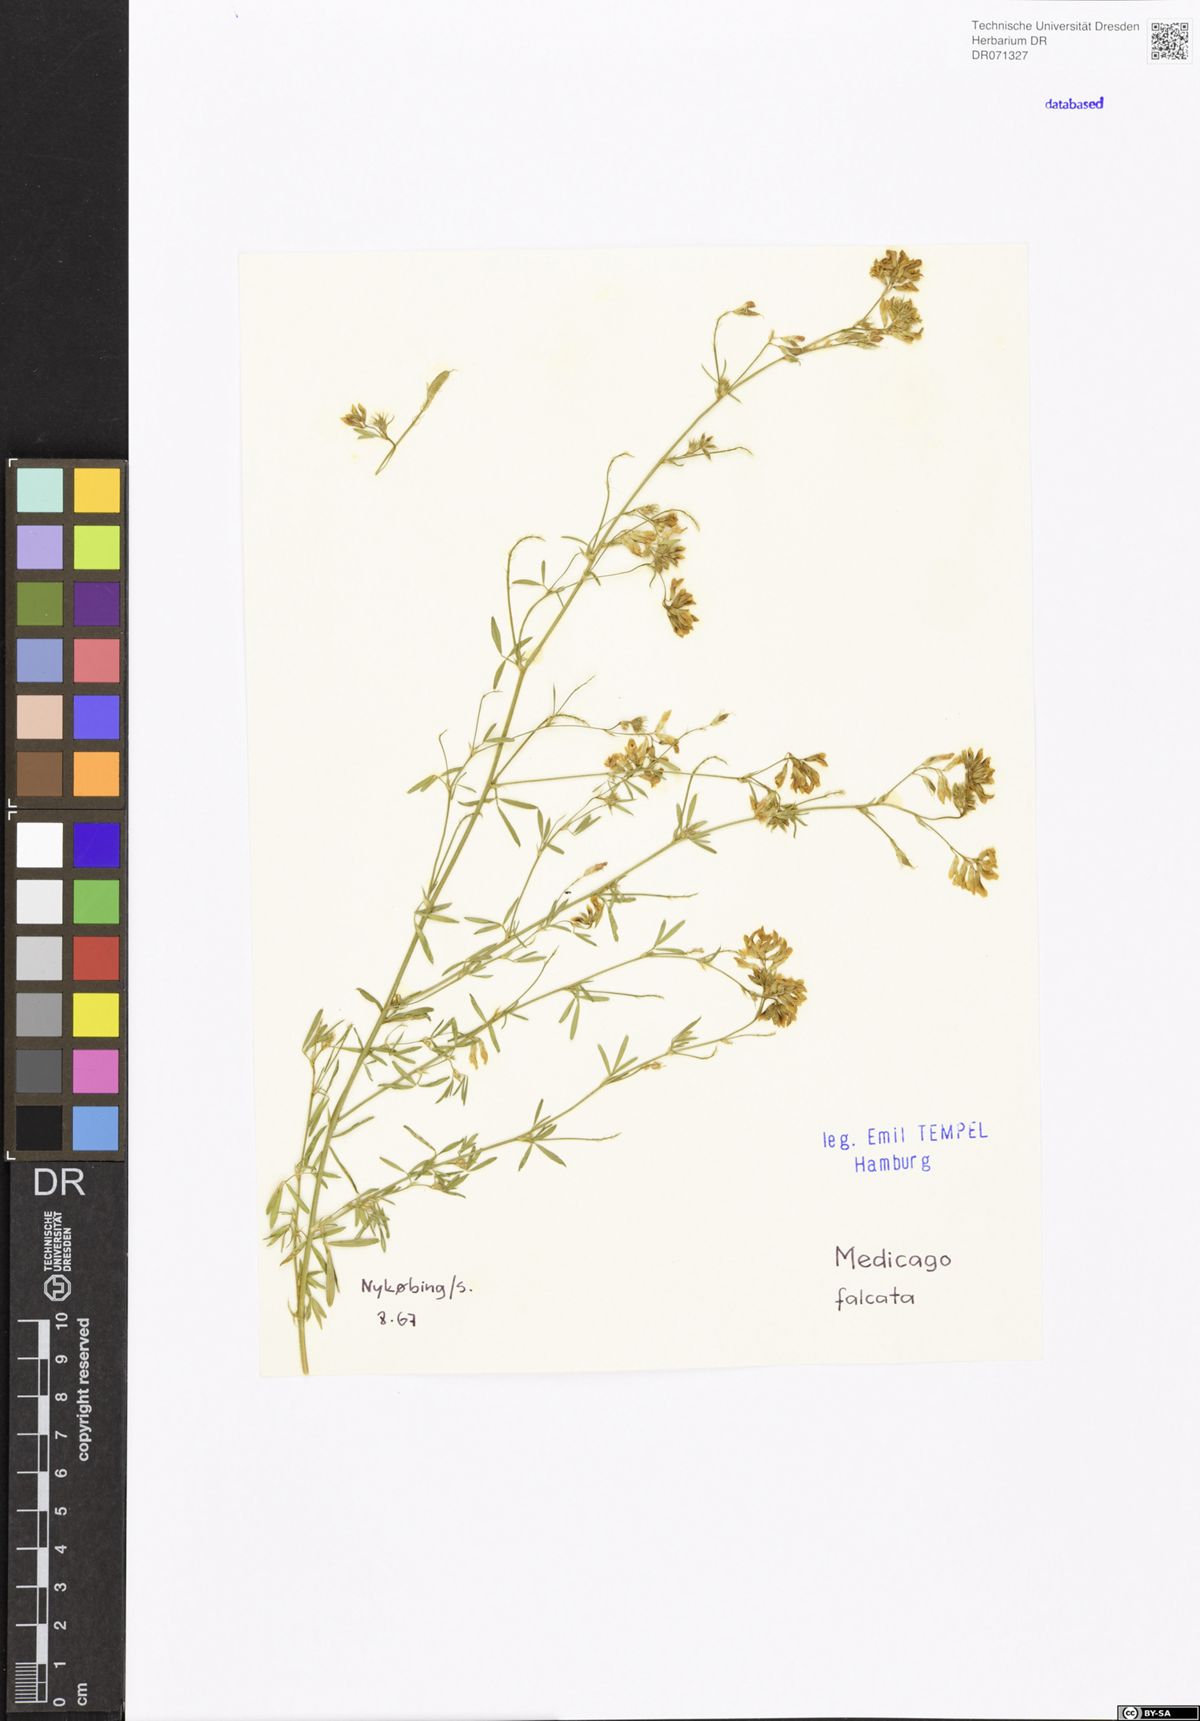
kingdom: Plantae
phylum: Tracheophyta
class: Magnoliopsida
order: Fabales
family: Fabaceae
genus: Medicago
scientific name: Medicago falcata
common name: Sickle medick
